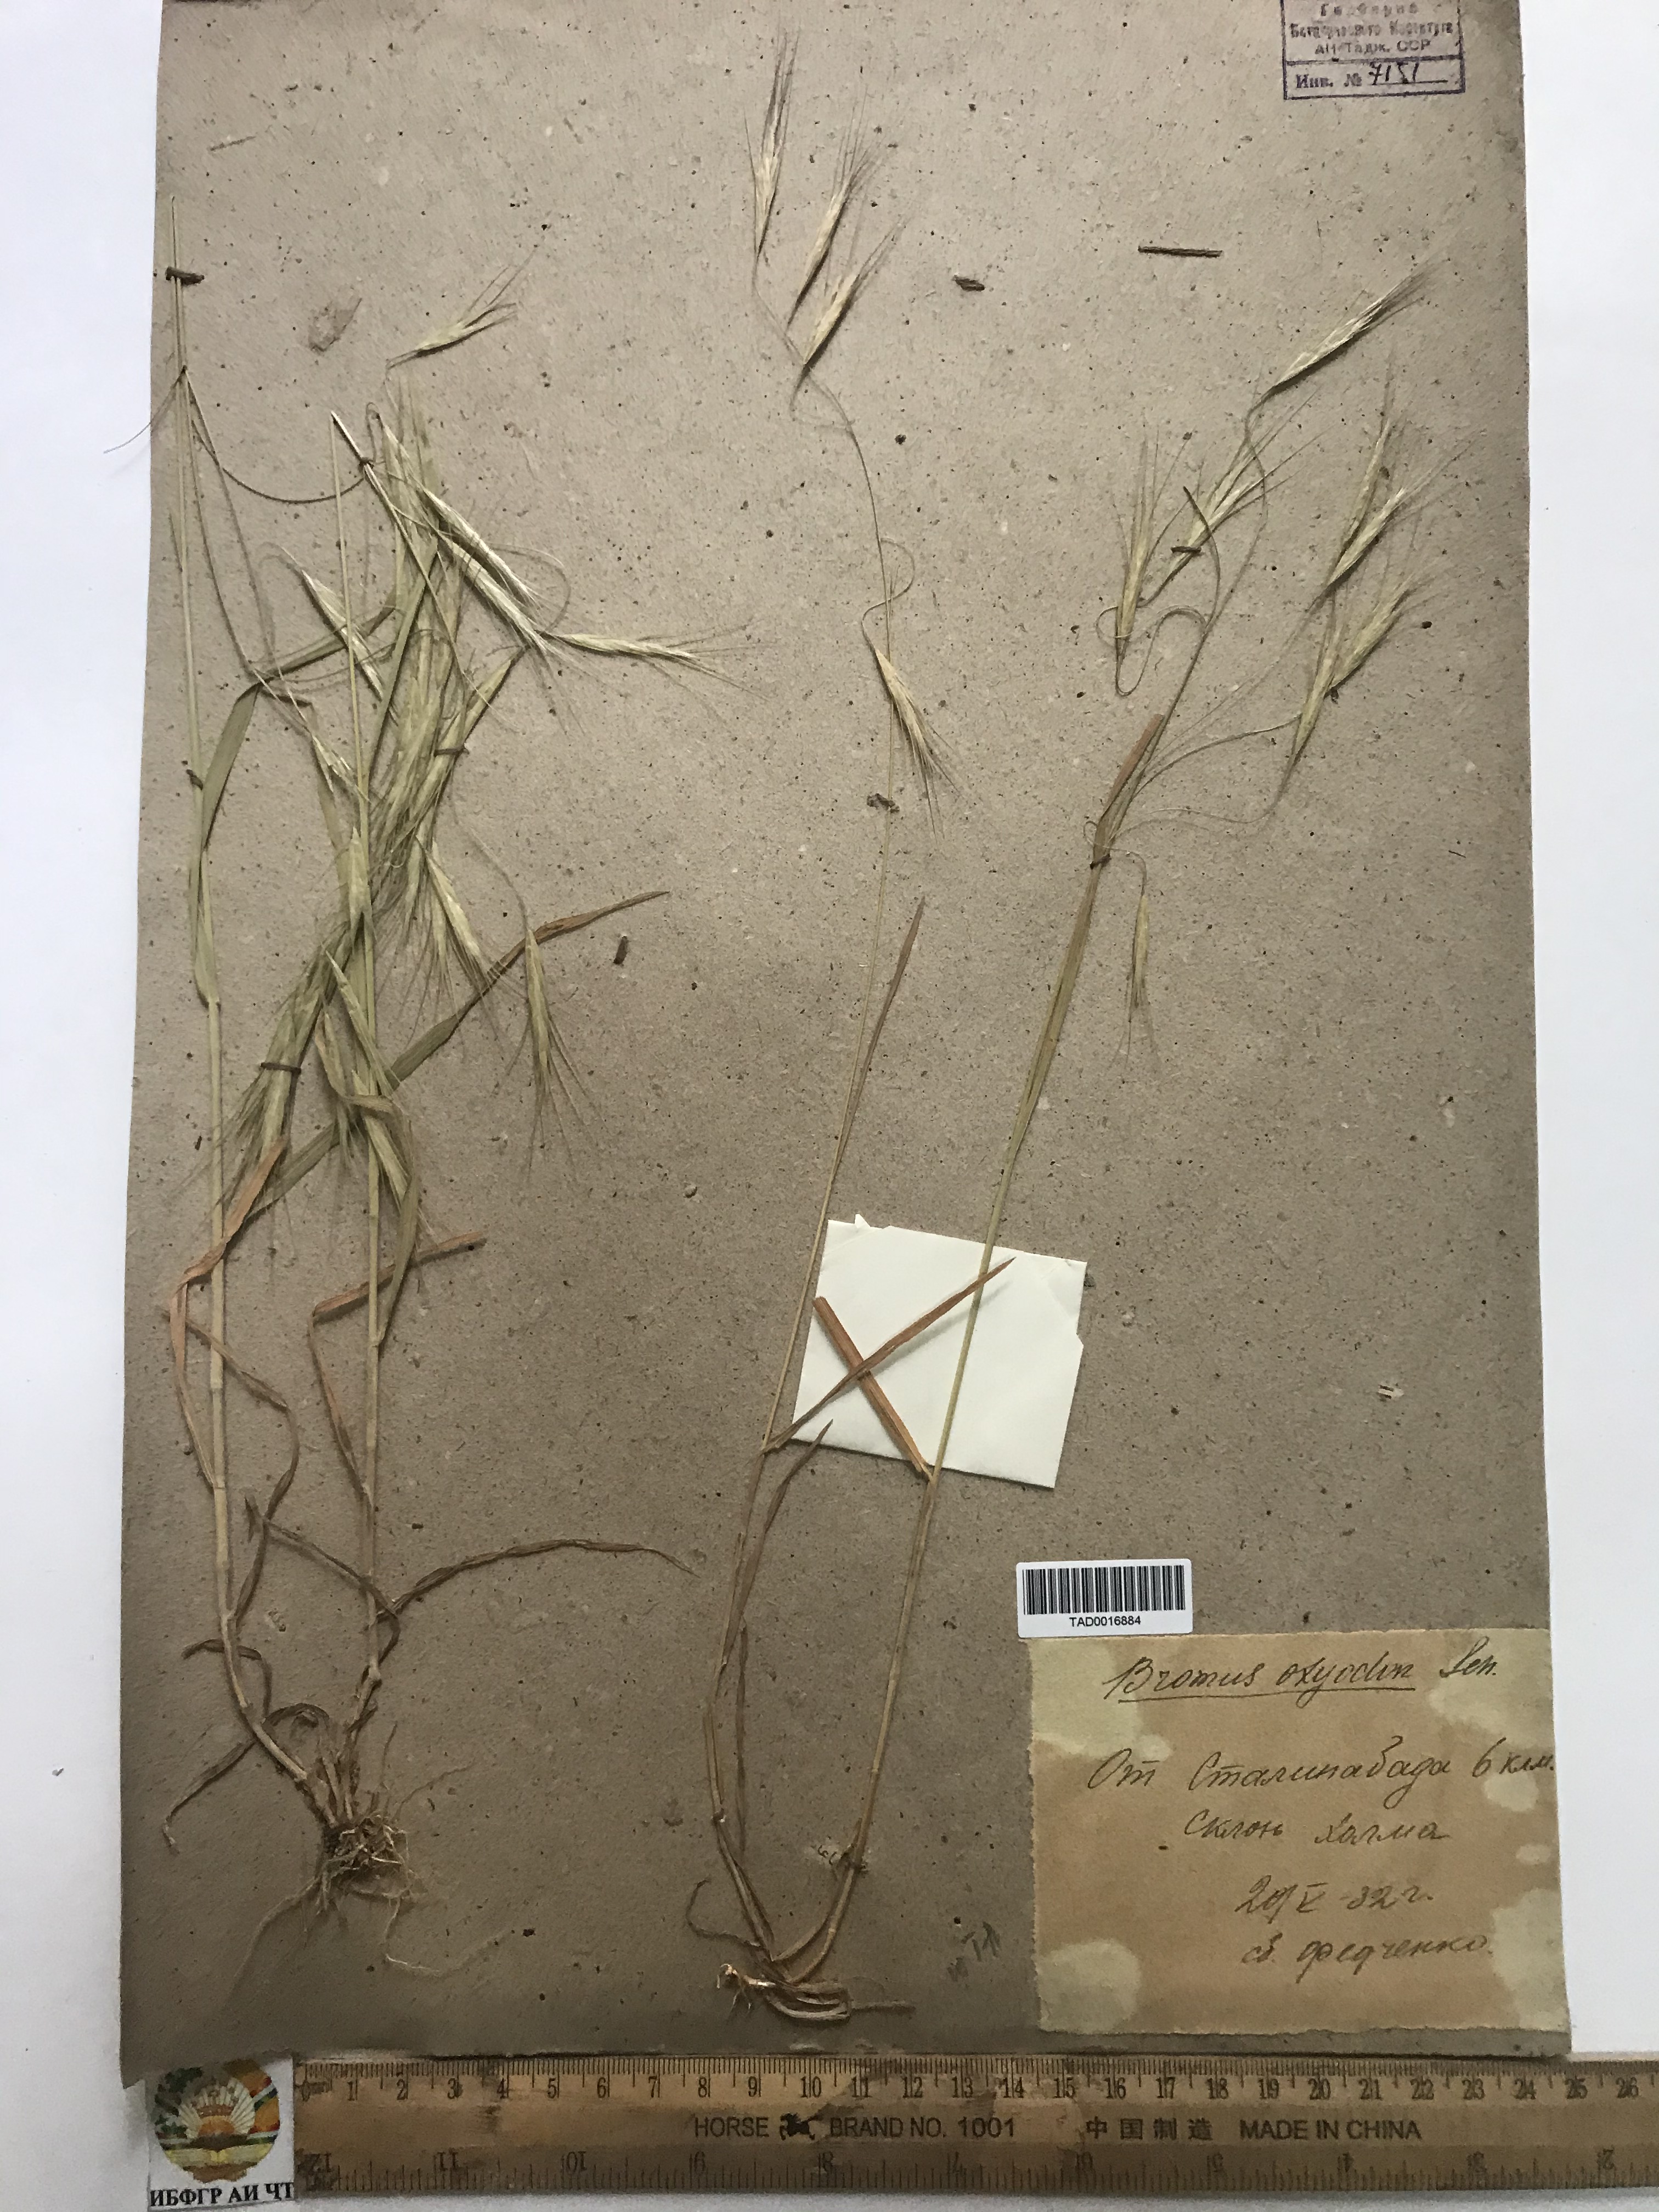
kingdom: Plantae
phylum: Tracheophyta
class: Liliopsida
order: Poales
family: Poaceae
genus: Bromus
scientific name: Bromus oxyodon
